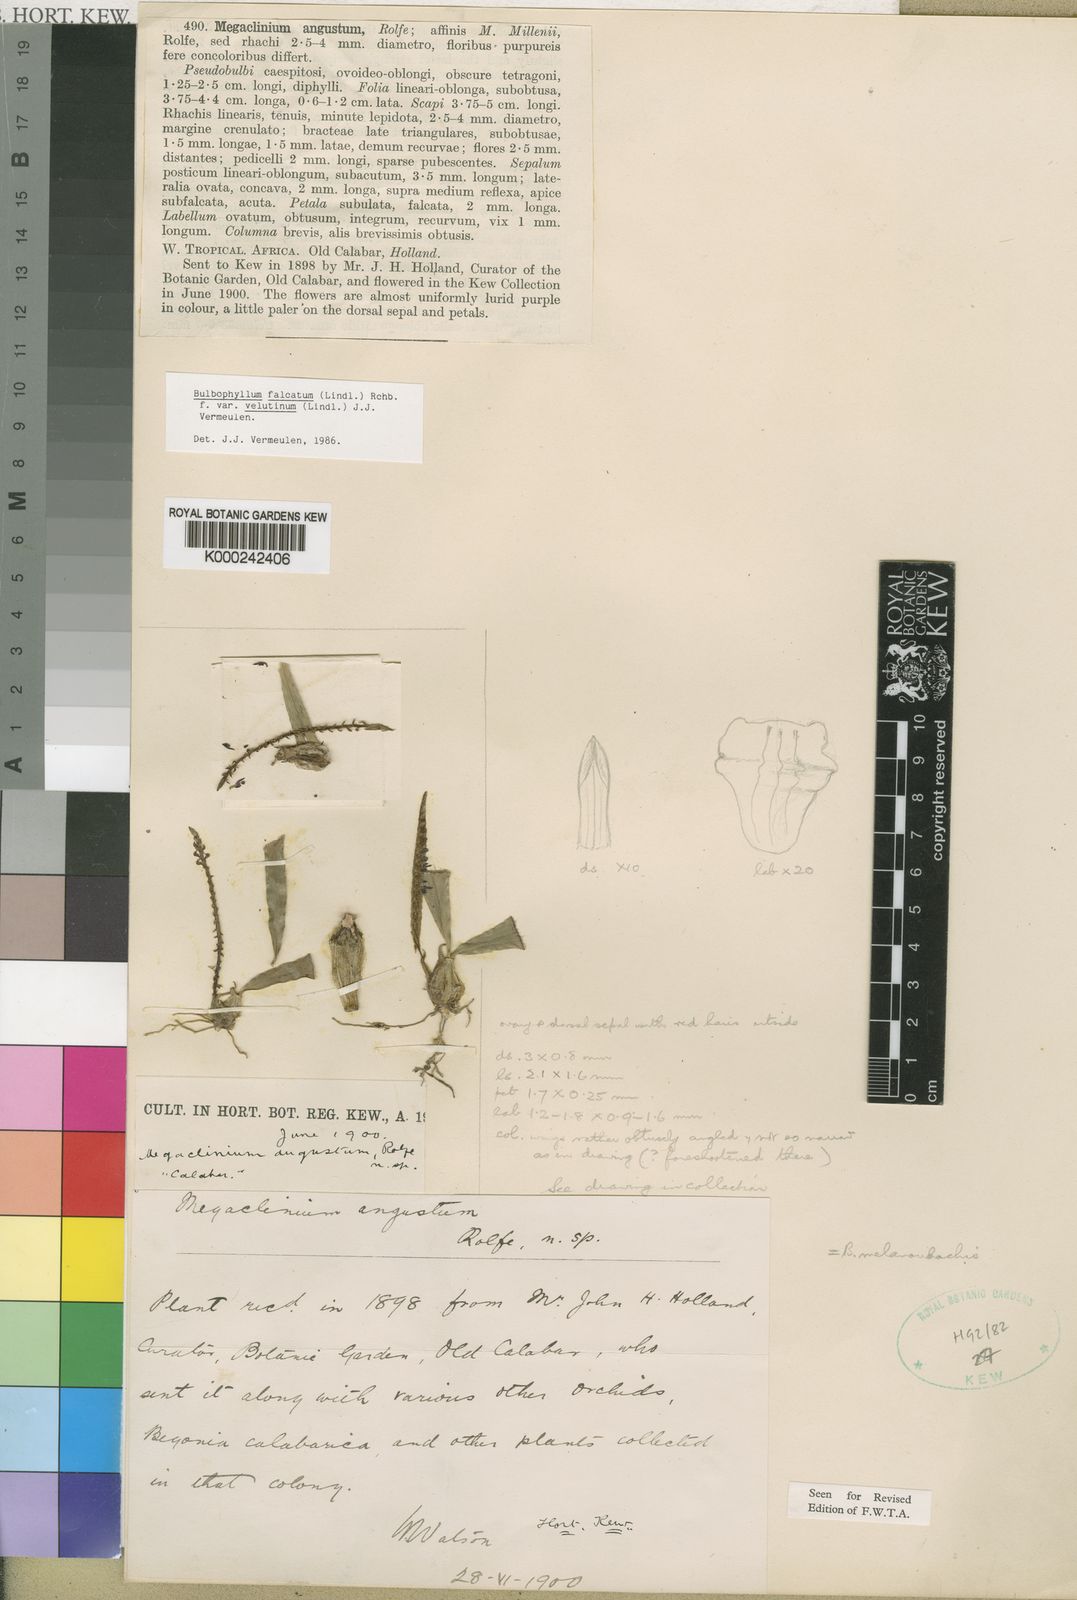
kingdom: Plantae
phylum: Tracheophyta
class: Liliopsida
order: Asparagales
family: Orchidaceae
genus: Bulbophyllum
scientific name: Bulbophyllum falcatum
